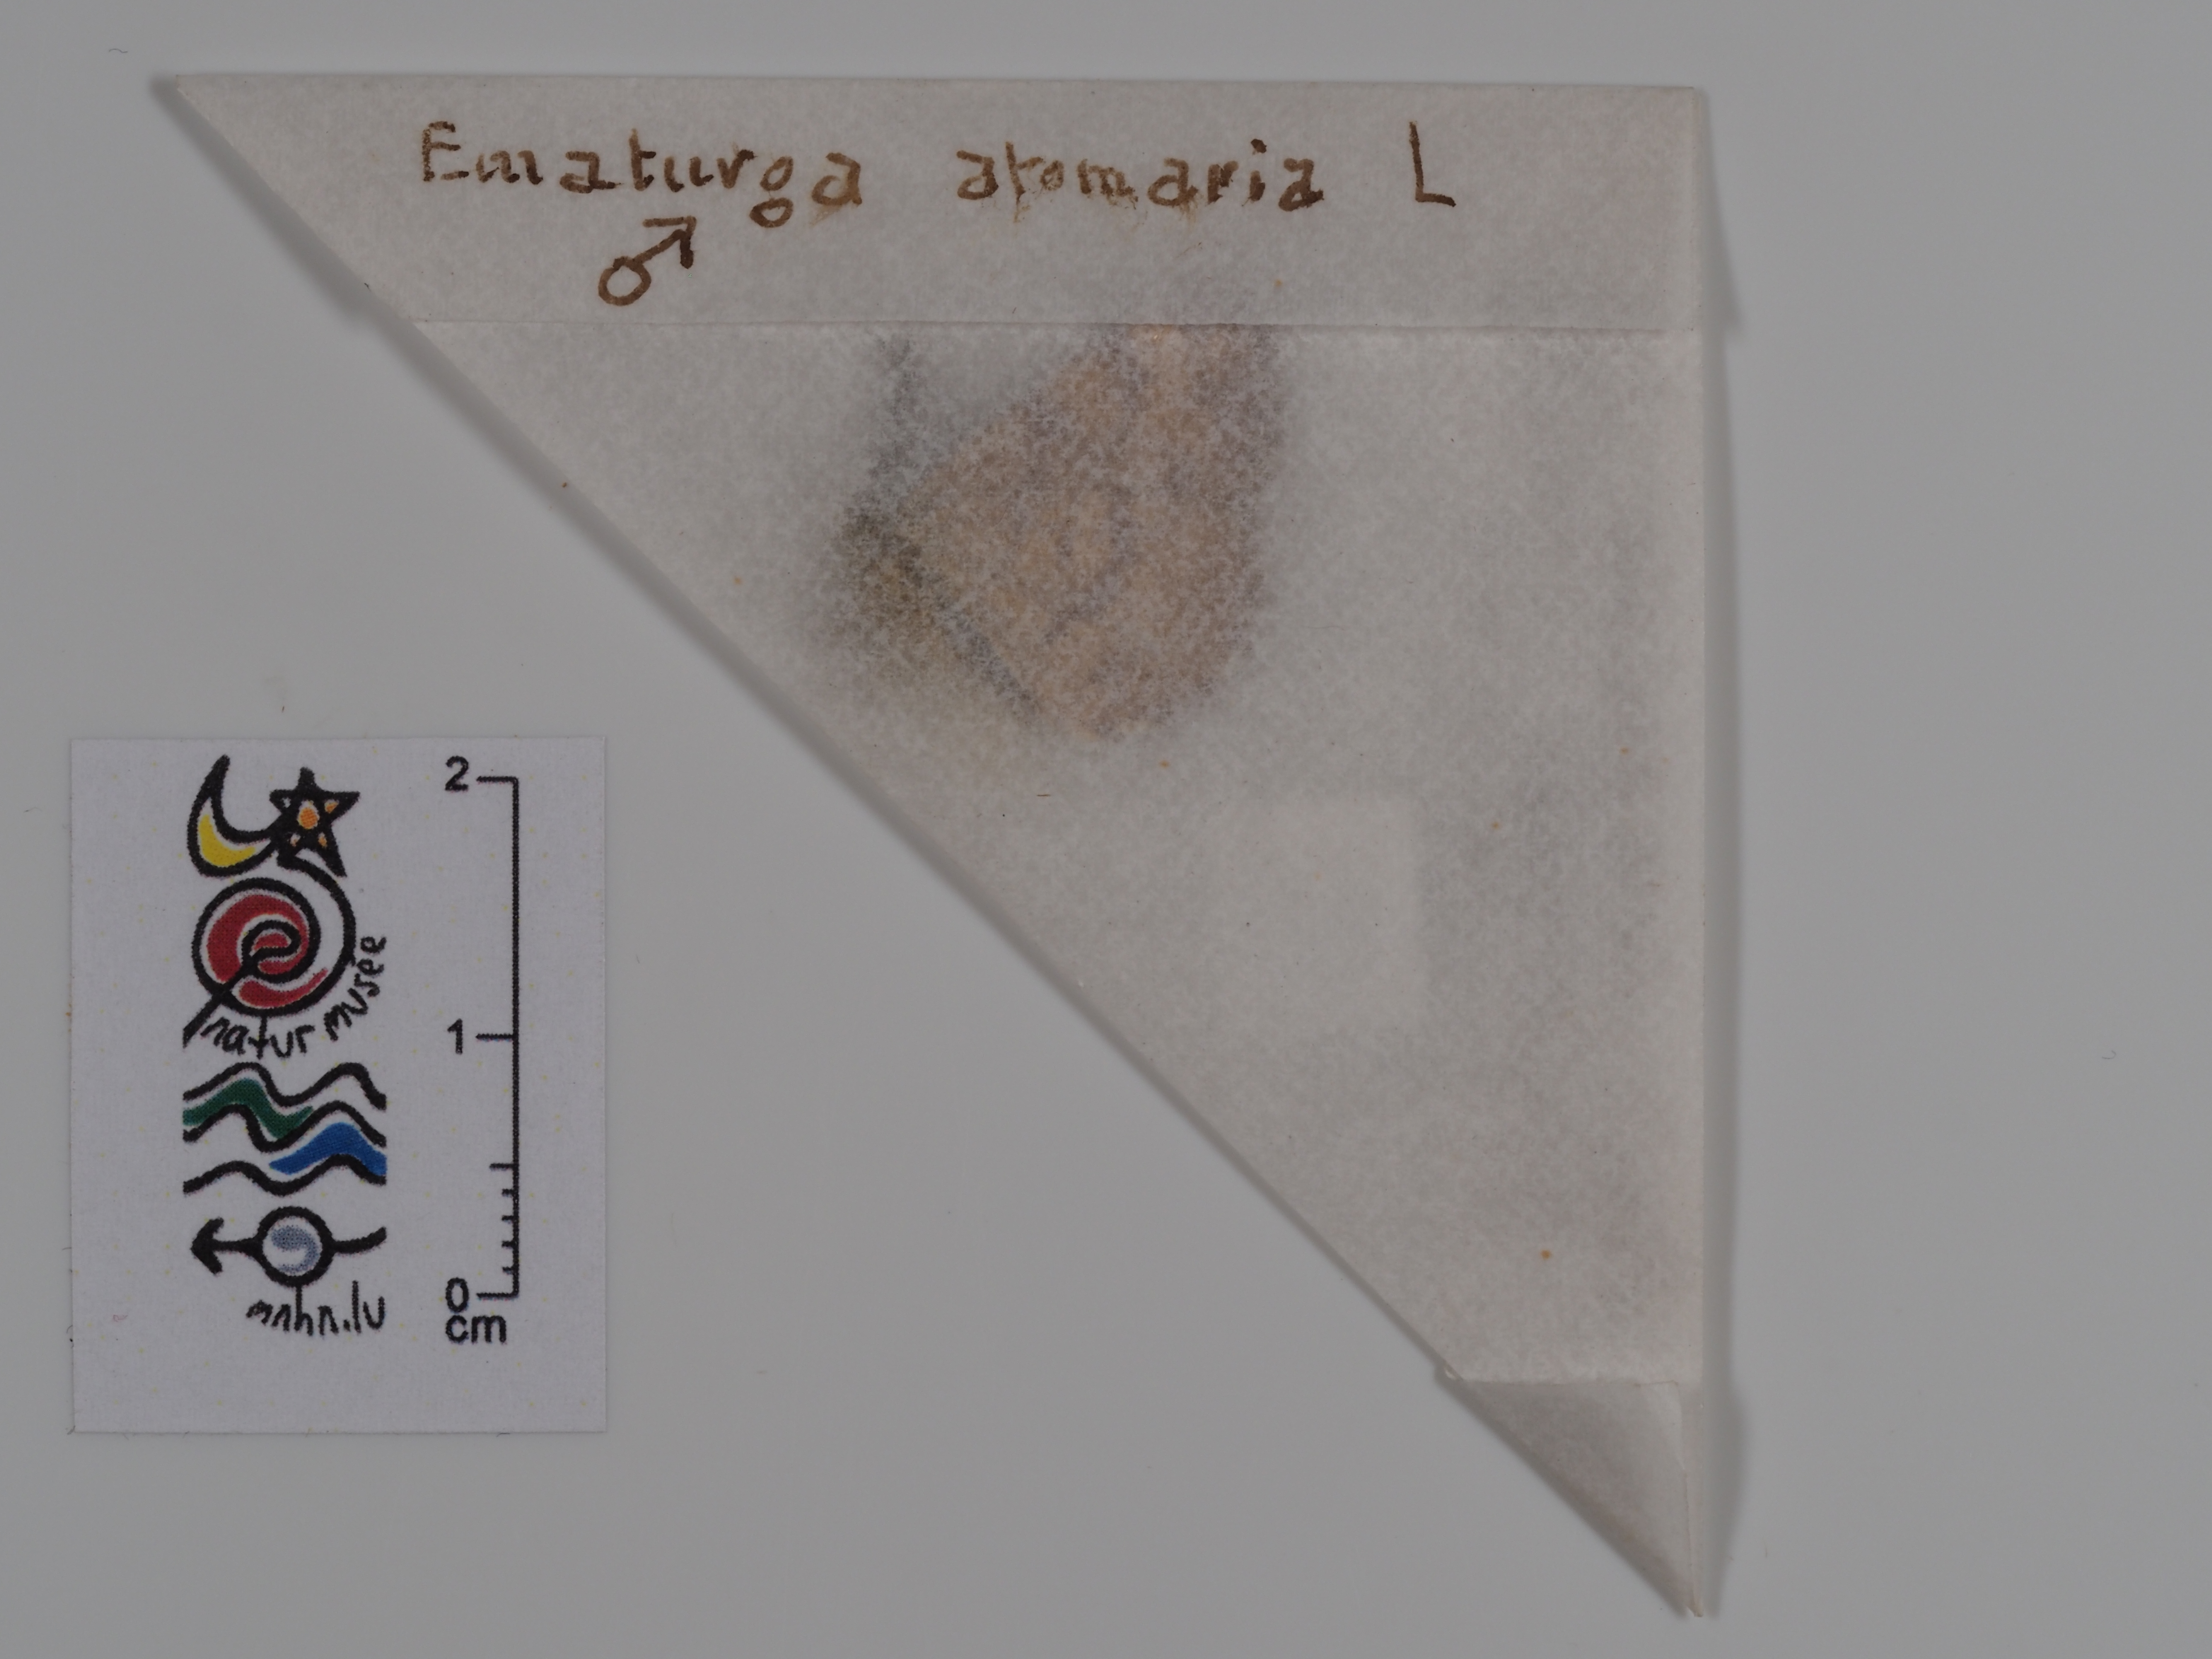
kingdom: Animalia
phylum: Arthropoda
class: Insecta
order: Lepidoptera
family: Geometridae
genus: Ematurga
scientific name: Ematurga atomaria
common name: Common heath
